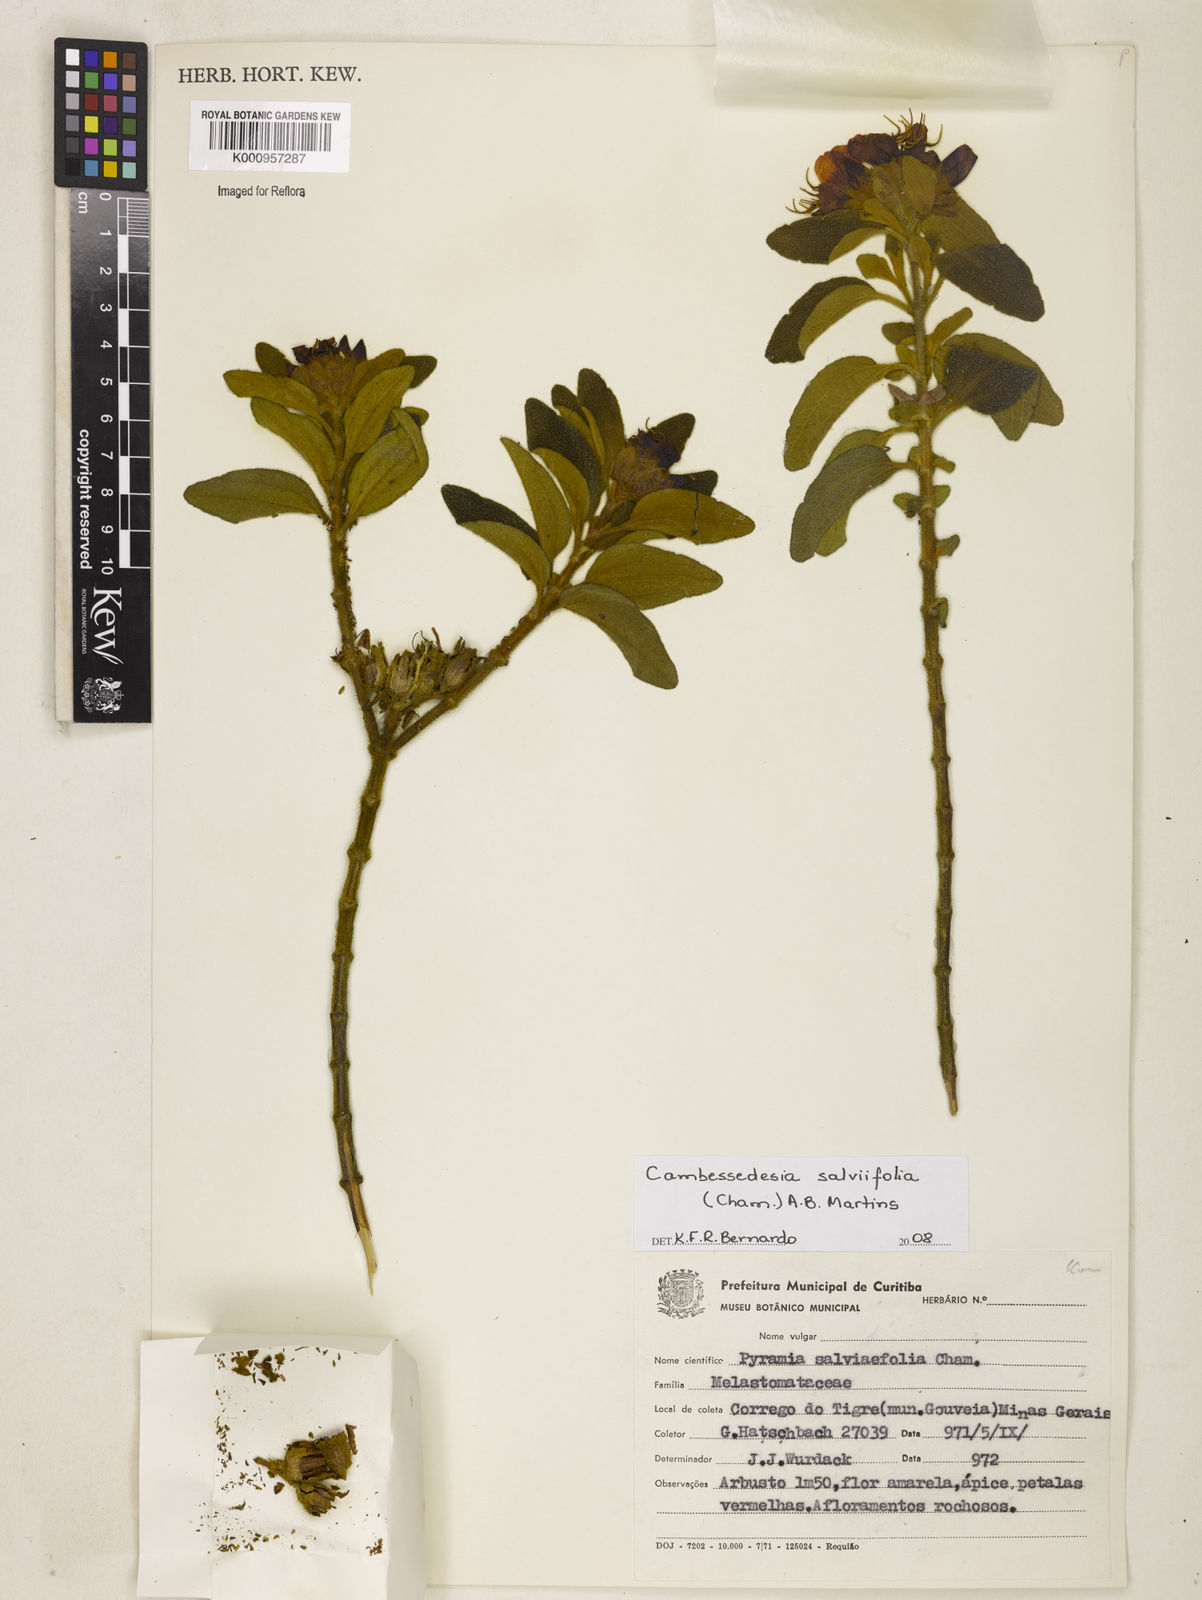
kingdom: Plantae
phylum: Tracheophyta
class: Magnoliopsida
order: Myrtales
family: Melastomataceae
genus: Cambessedesia
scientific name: Cambessedesia
